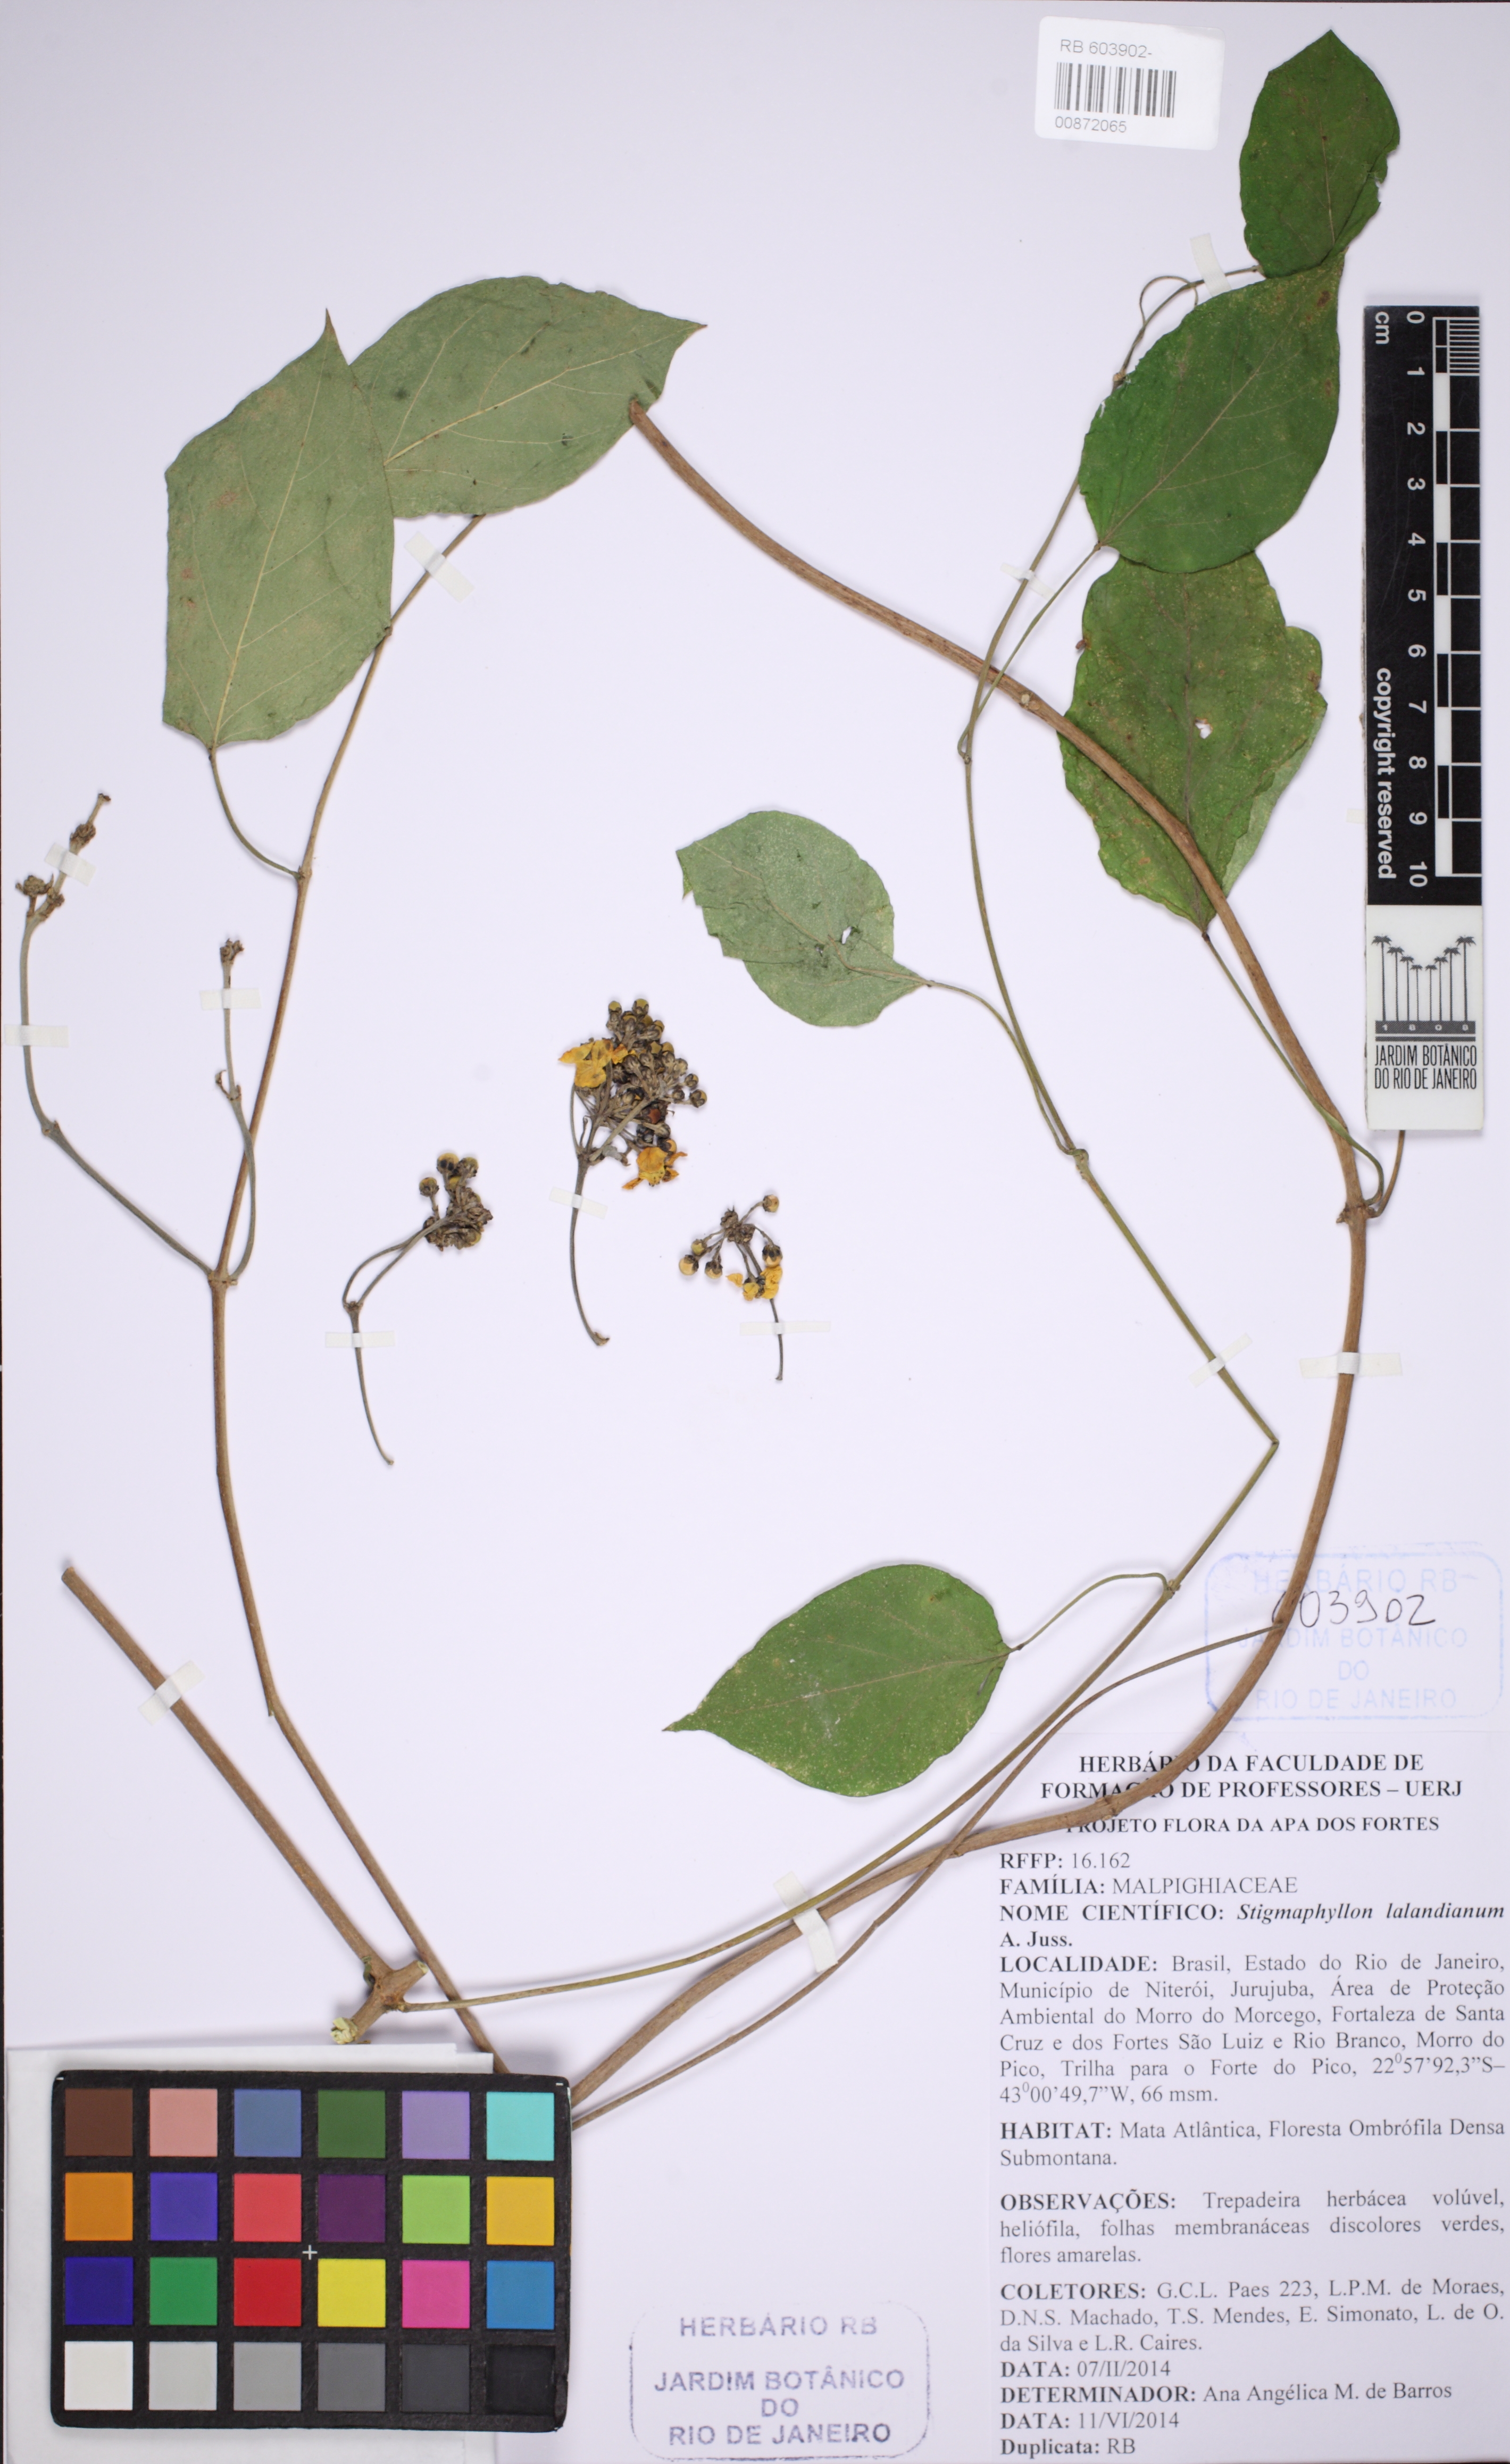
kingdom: Plantae
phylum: Tracheophyta
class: Magnoliopsida
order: Malpighiales
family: Malpighiaceae
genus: Stigmaphyllon
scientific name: Stigmaphyllon lalandianum
